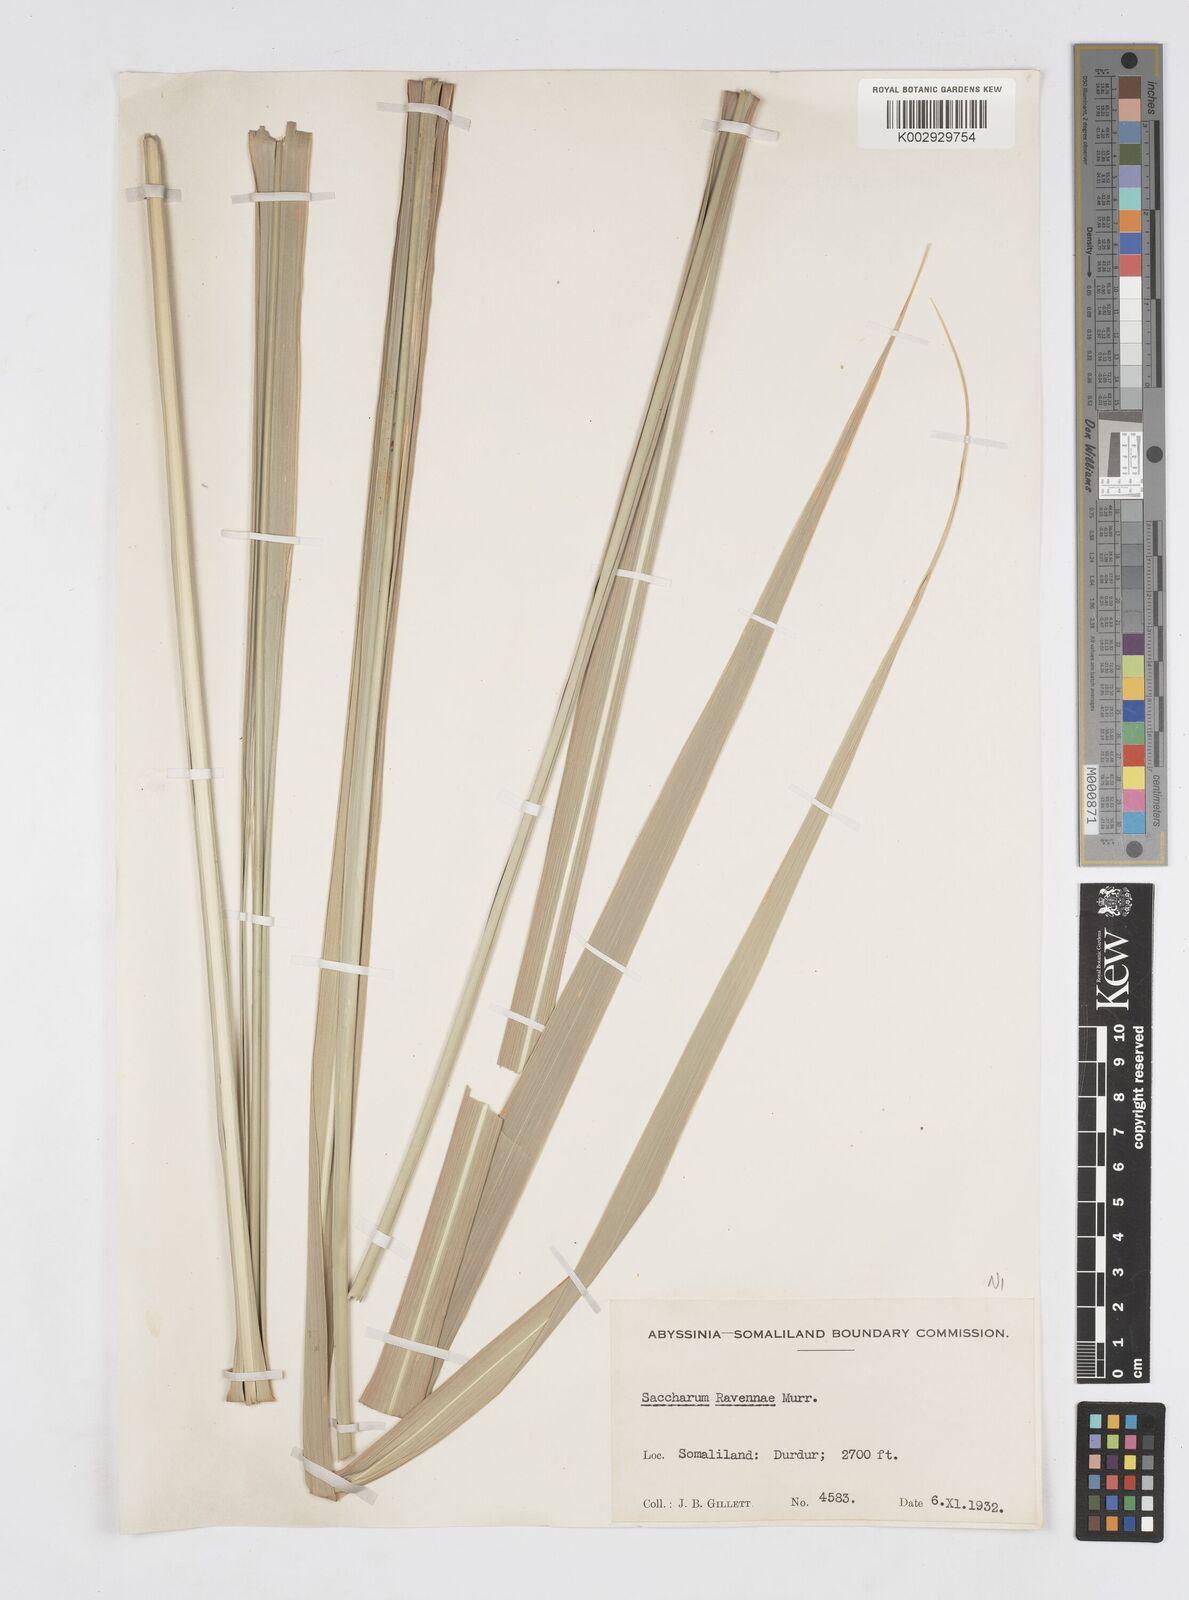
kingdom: Plantae
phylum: Tracheophyta
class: Liliopsida
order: Poales
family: Poaceae
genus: Tripidium
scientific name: Tripidium ravennae
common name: Ravenna grass
